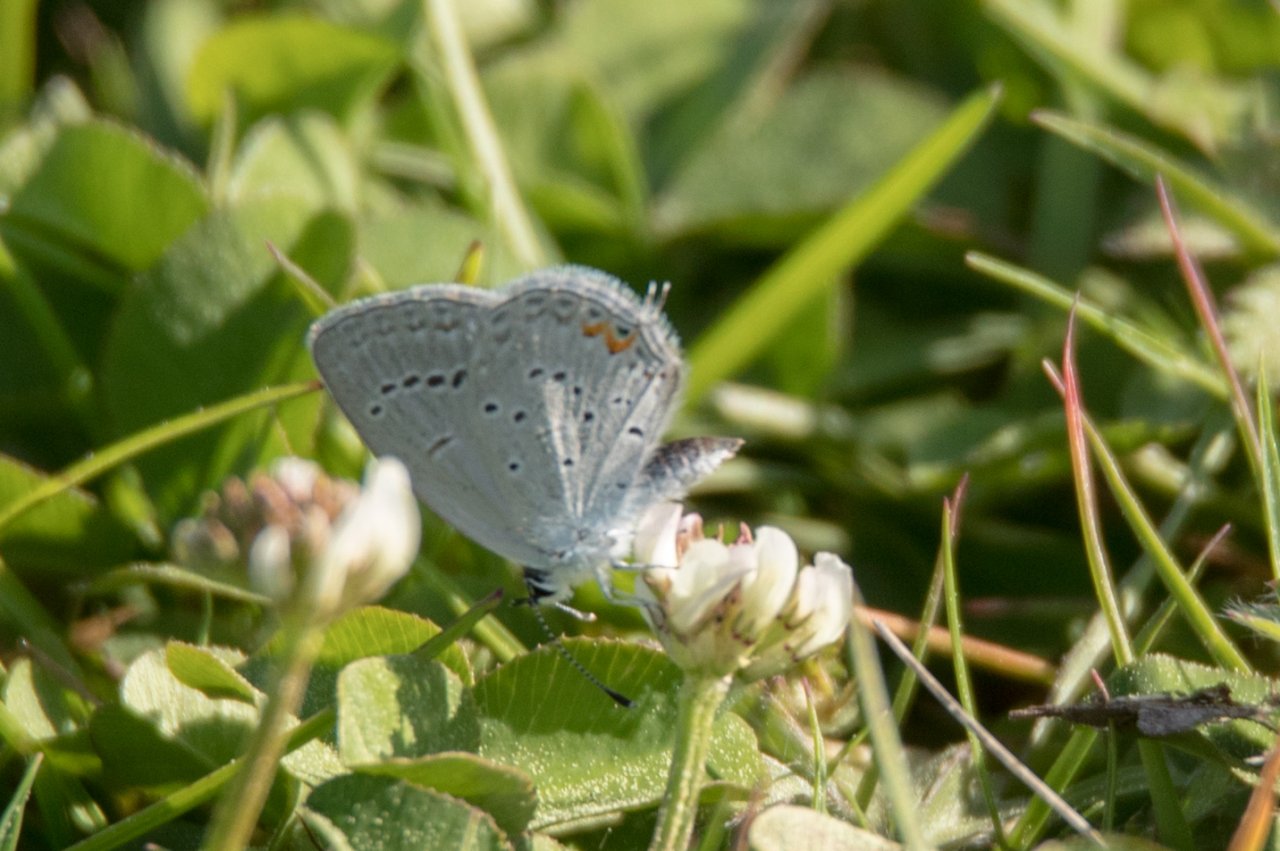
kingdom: Animalia
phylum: Arthropoda
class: Insecta
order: Lepidoptera
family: Lycaenidae
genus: Elkalyce
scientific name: Elkalyce comyntas
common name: Eastern Tailed-Blue
